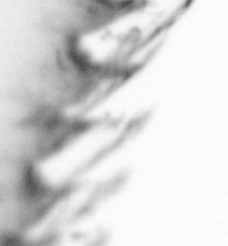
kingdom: Animalia
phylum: Arthropoda
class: Copepoda
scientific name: Copepoda
